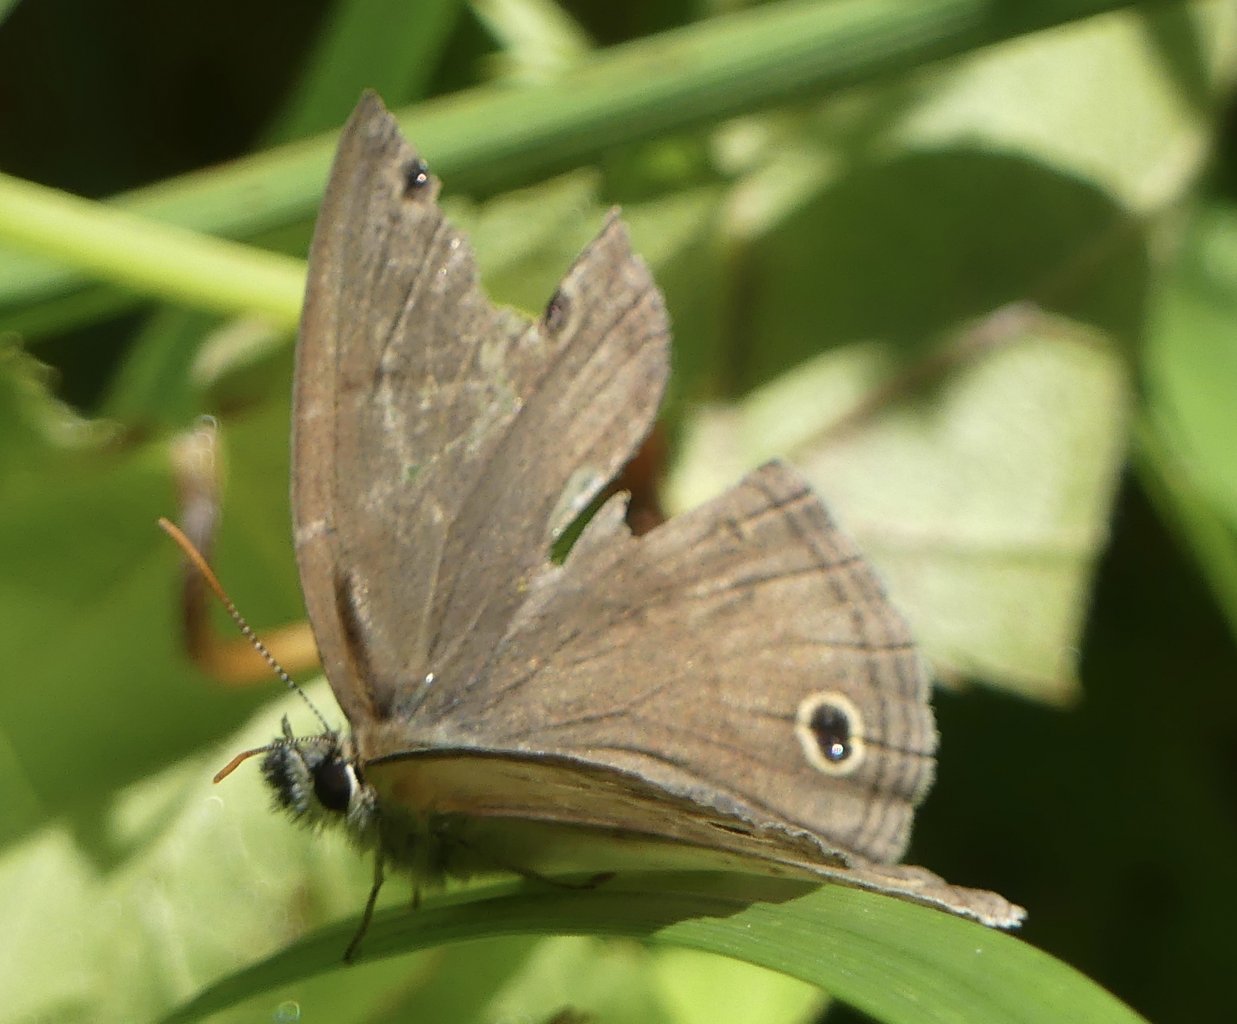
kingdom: Animalia
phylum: Arthropoda
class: Insecta
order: Lepidoptera
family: Nymphalidae
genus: Euptychia
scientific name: Euptychia cymela
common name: Little Wood Satyr
